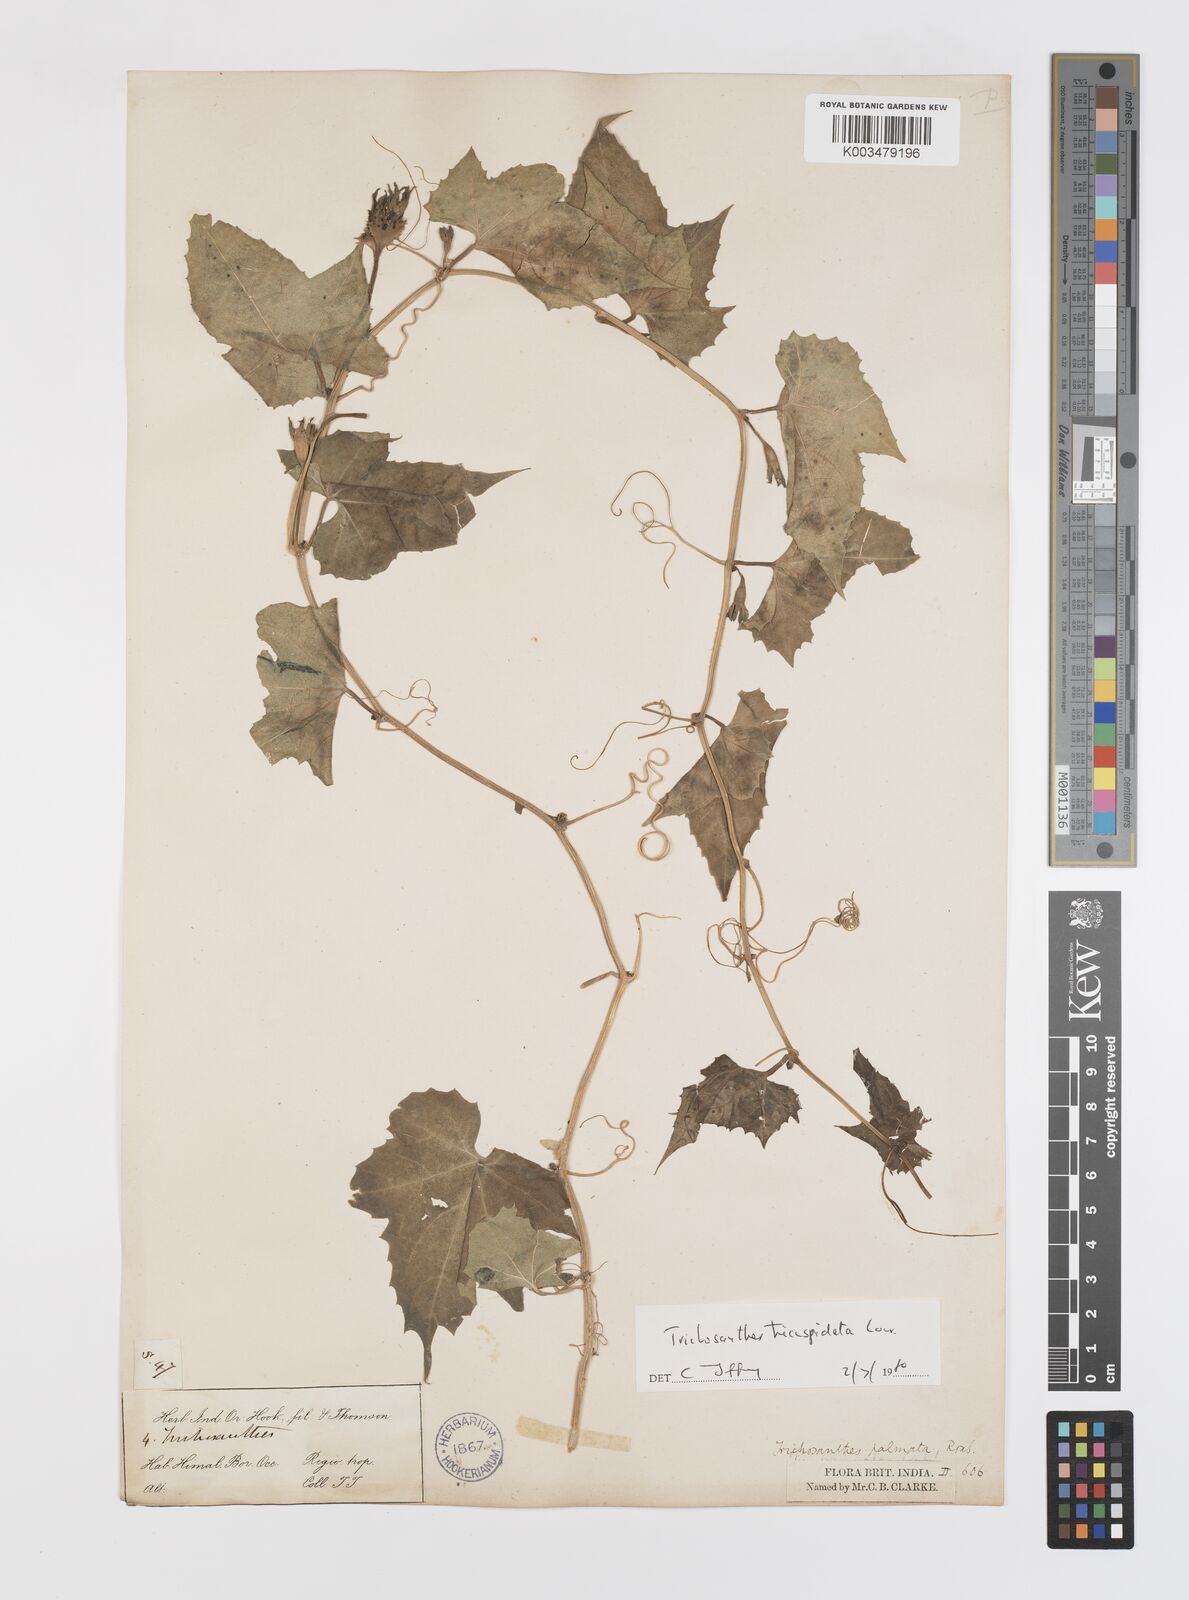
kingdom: Plantae
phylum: Tracheophyta
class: Magnoliopsida
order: Cucurbitales
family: Cucurbitaceae
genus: Trichosanthes
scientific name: Trichosanthes tricuspidata
